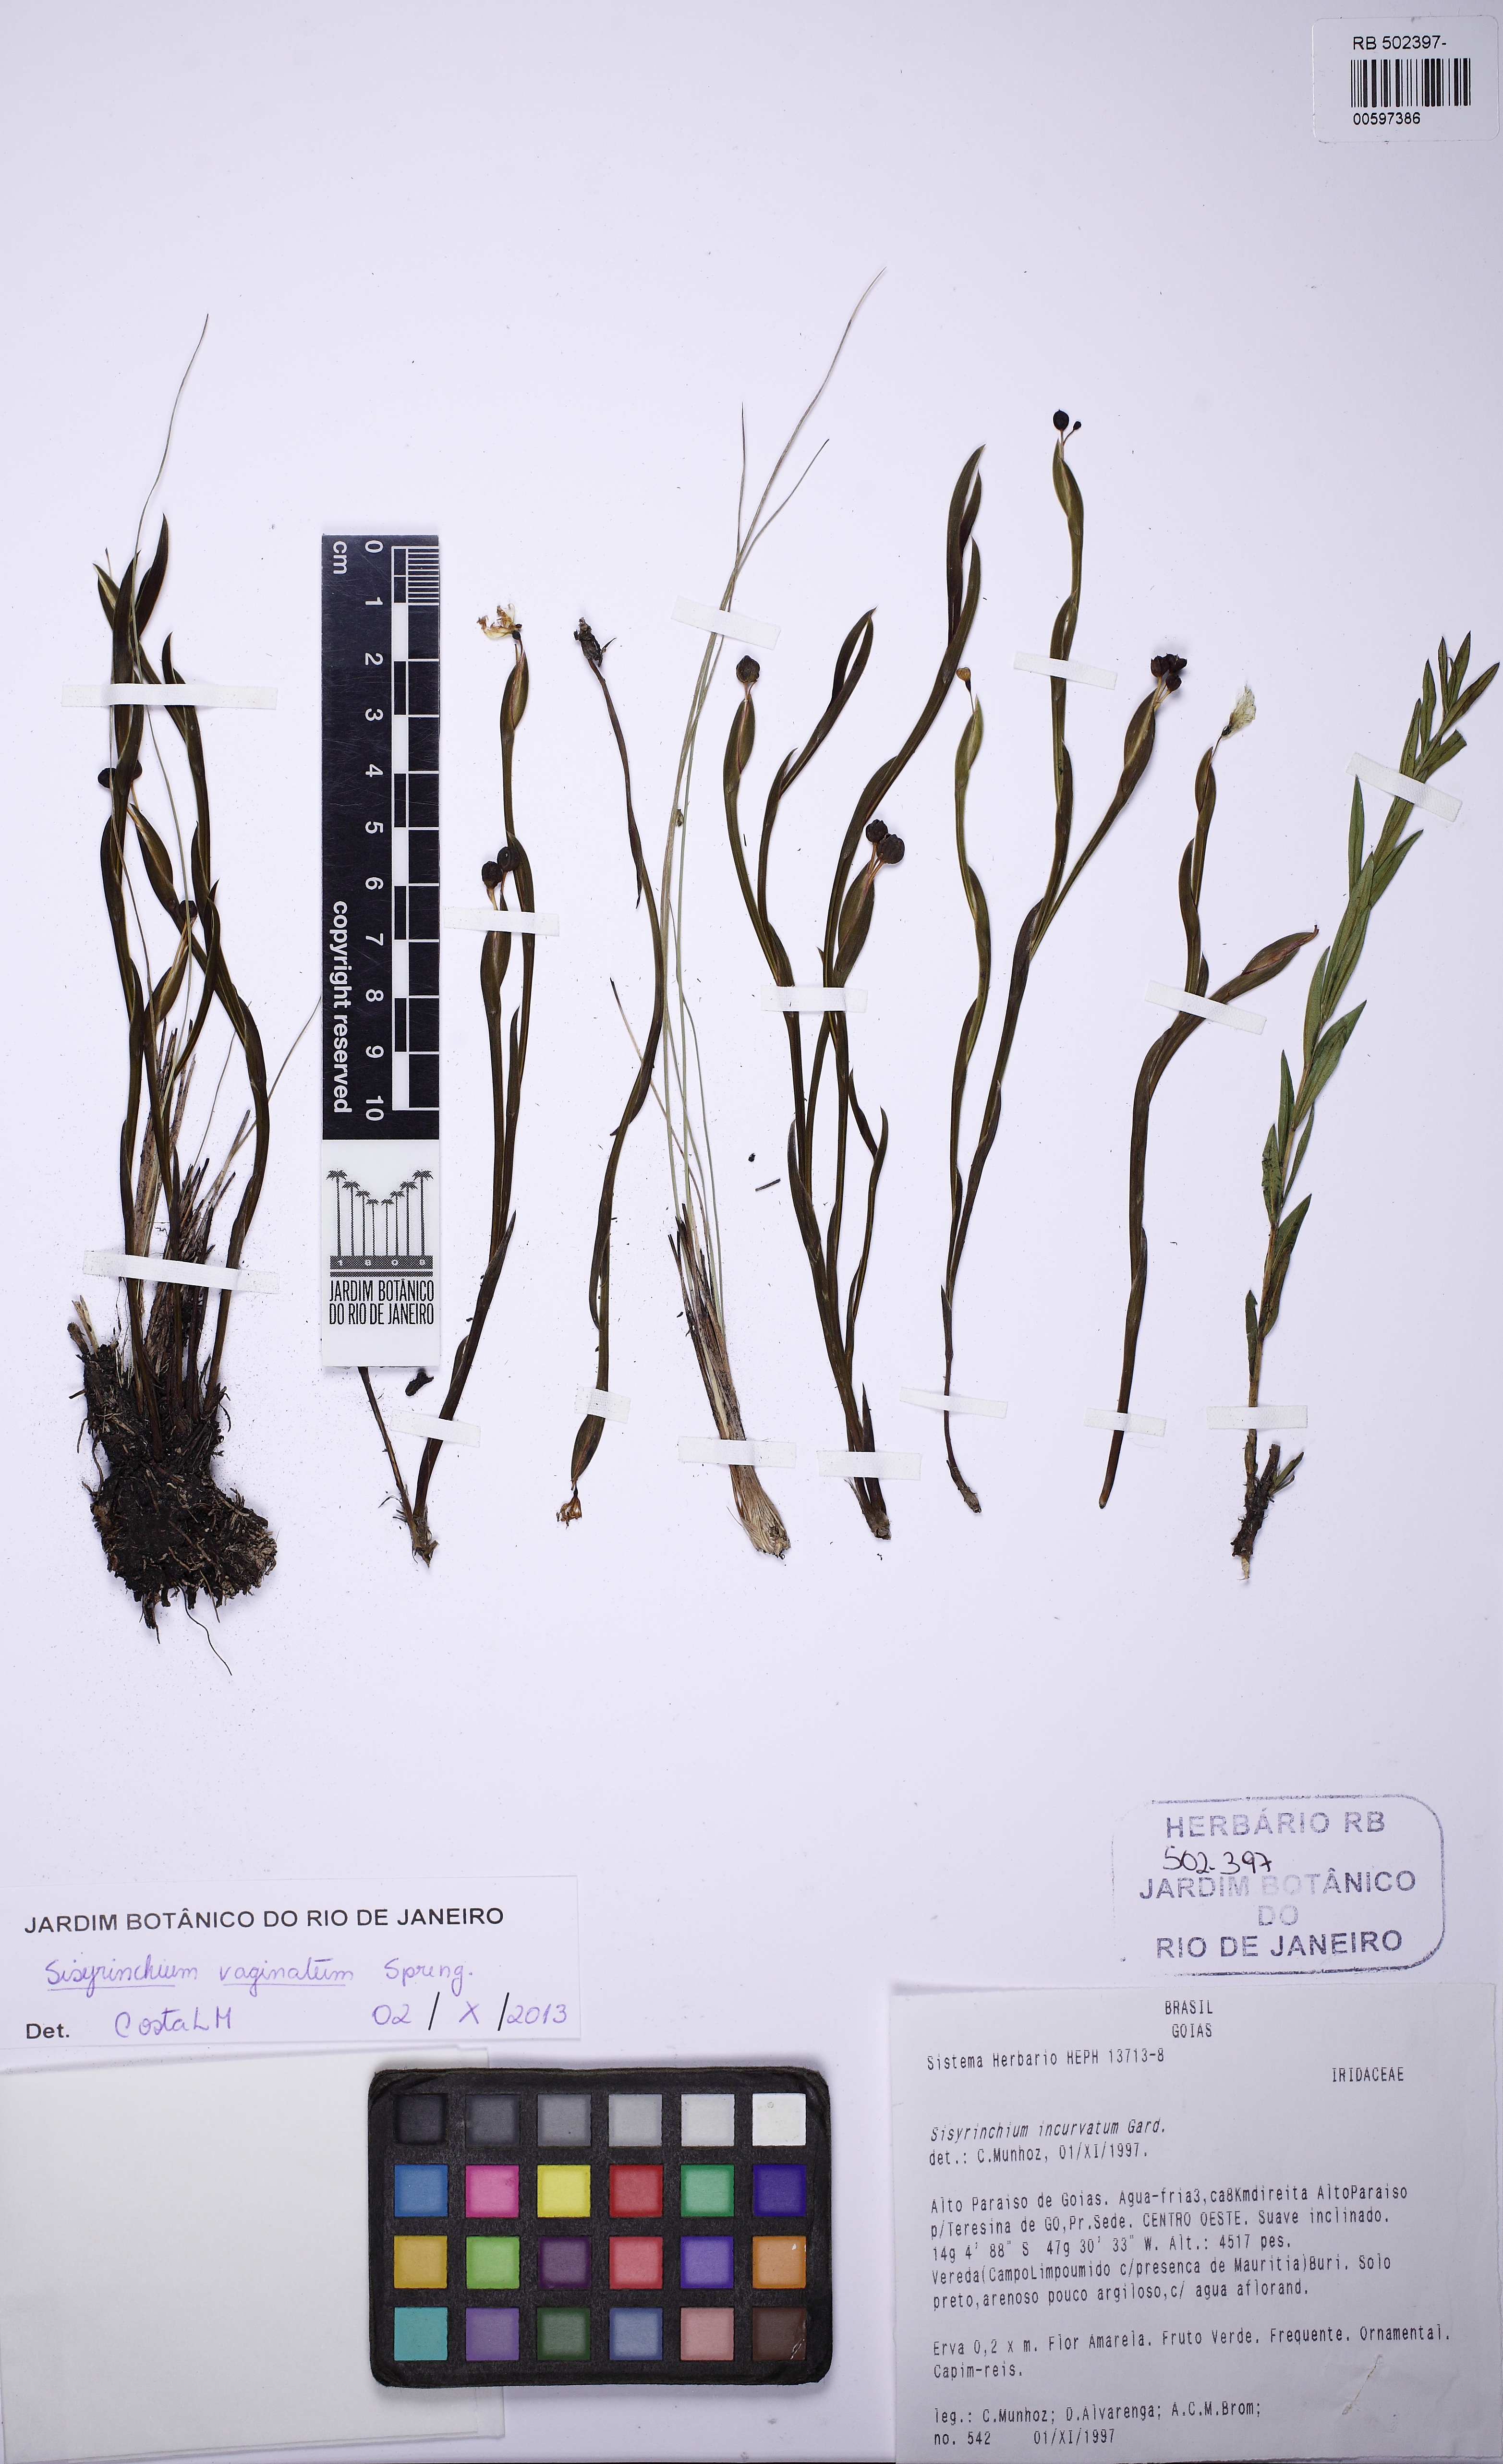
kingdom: Plantae
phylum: Tracheophyta
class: Liliopsida
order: Asparagales
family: Iridaceae
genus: Sisyrinchium
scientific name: Sisyrinchium vaginatum
